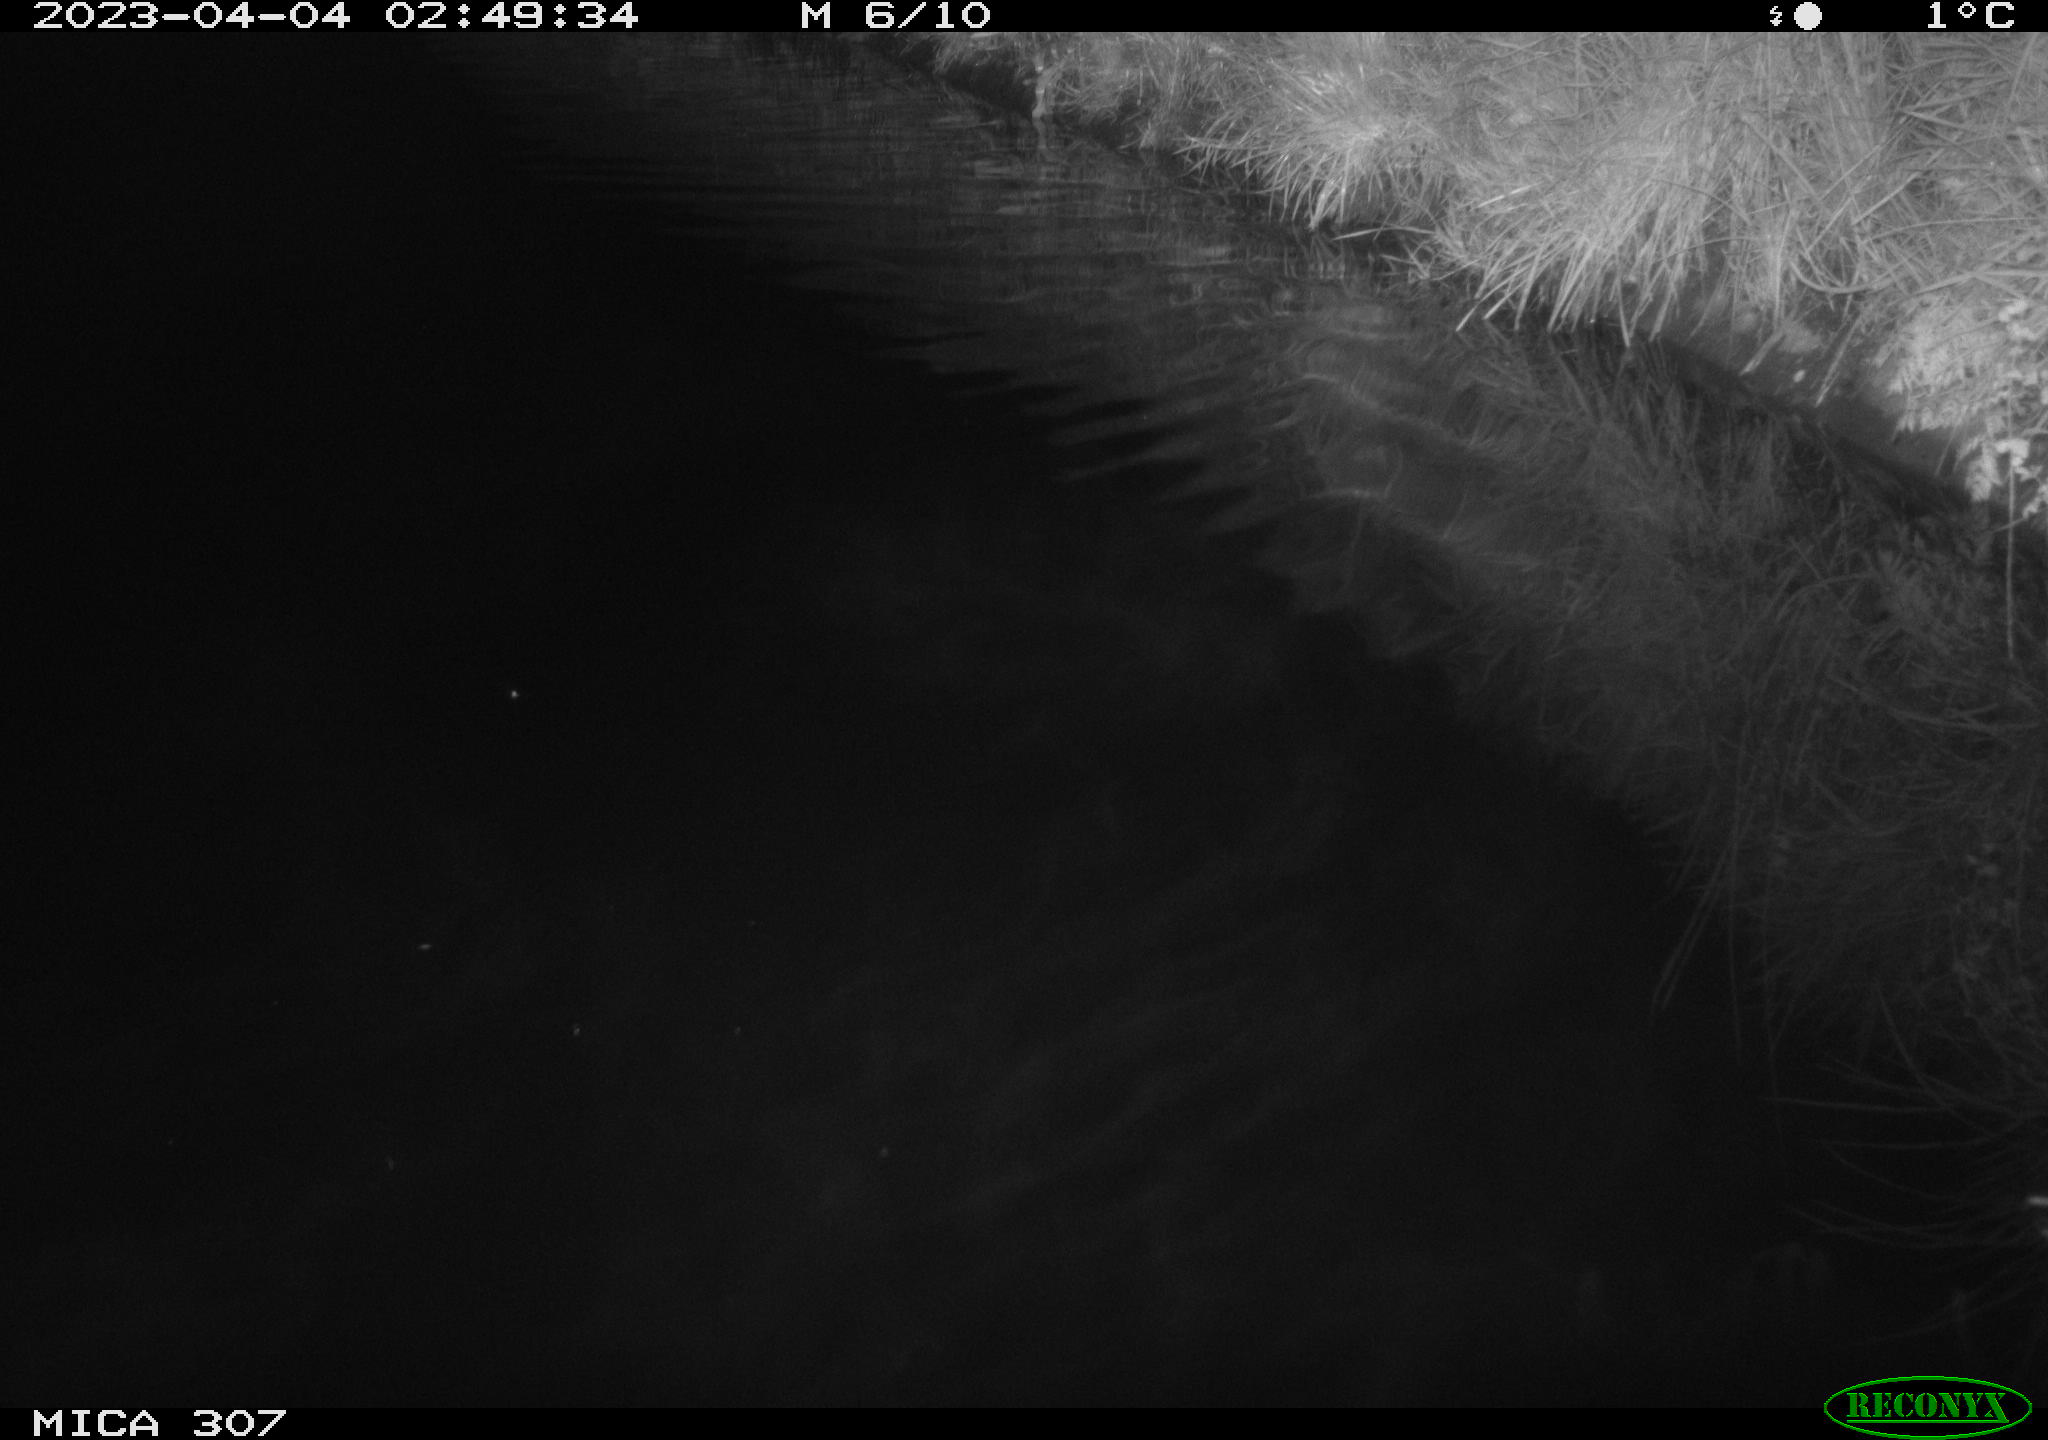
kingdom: Animalia
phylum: Chordata
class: Aves
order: Anseriformes
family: Anatidae
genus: Anas
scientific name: Anas
